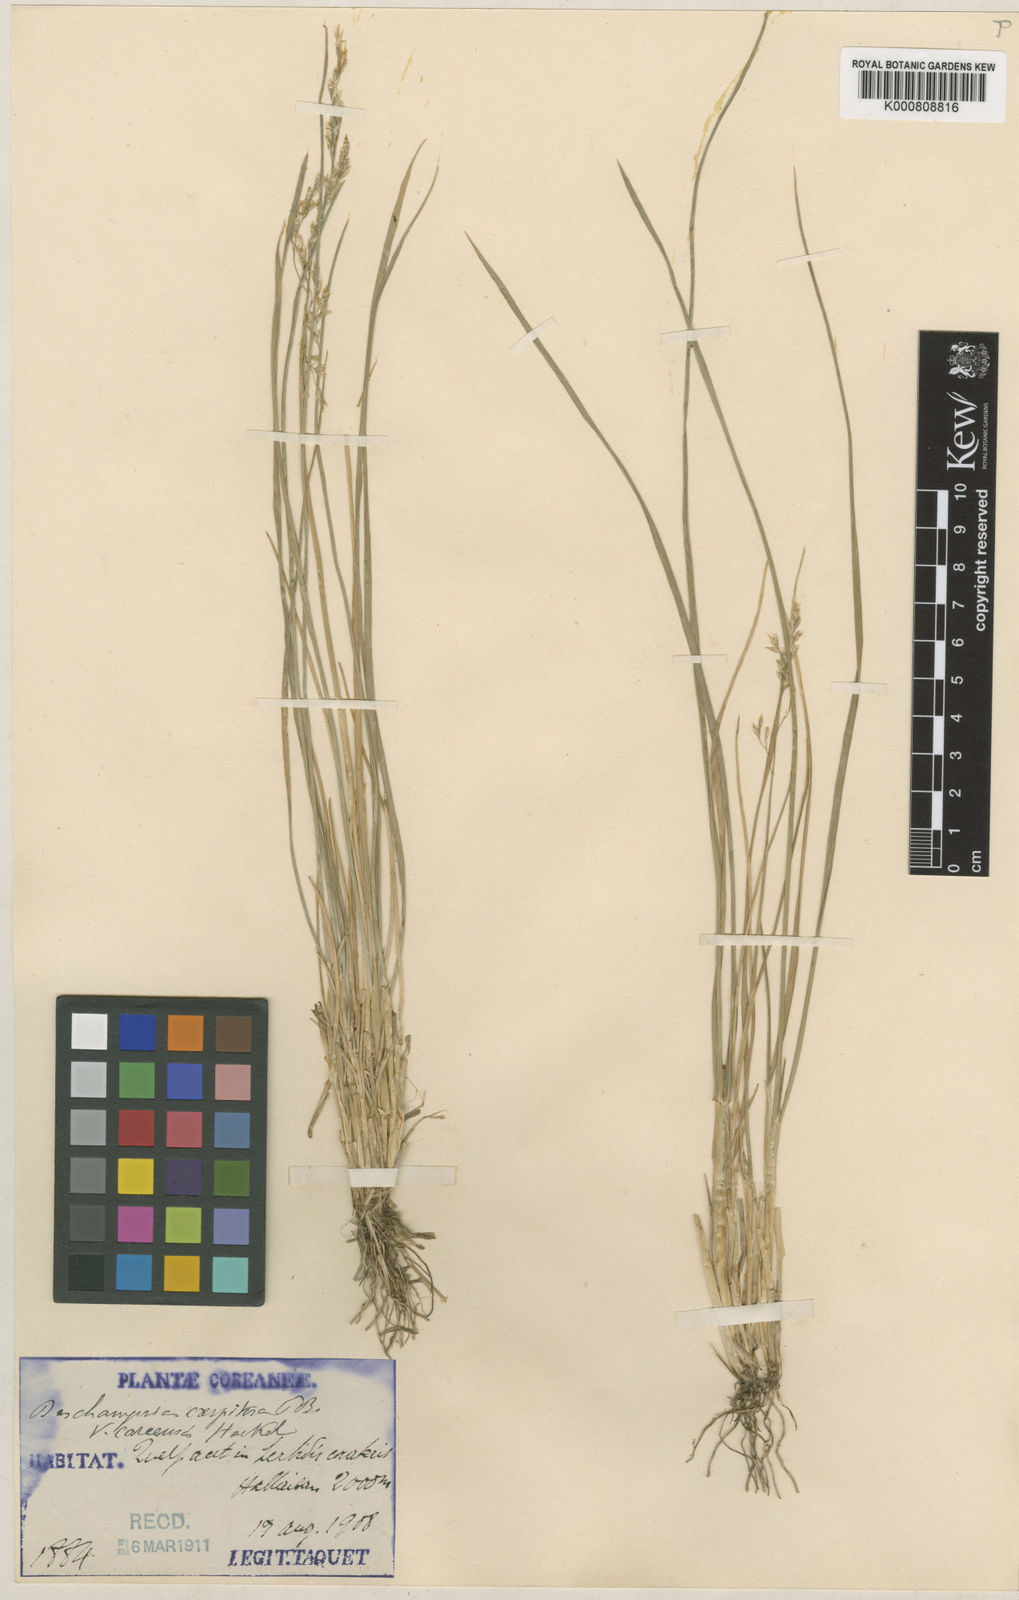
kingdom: Plantae
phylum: Tracheophyta
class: Liliopsida
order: Poales
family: Poaceae
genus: Deschampsia
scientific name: Deschampsia
